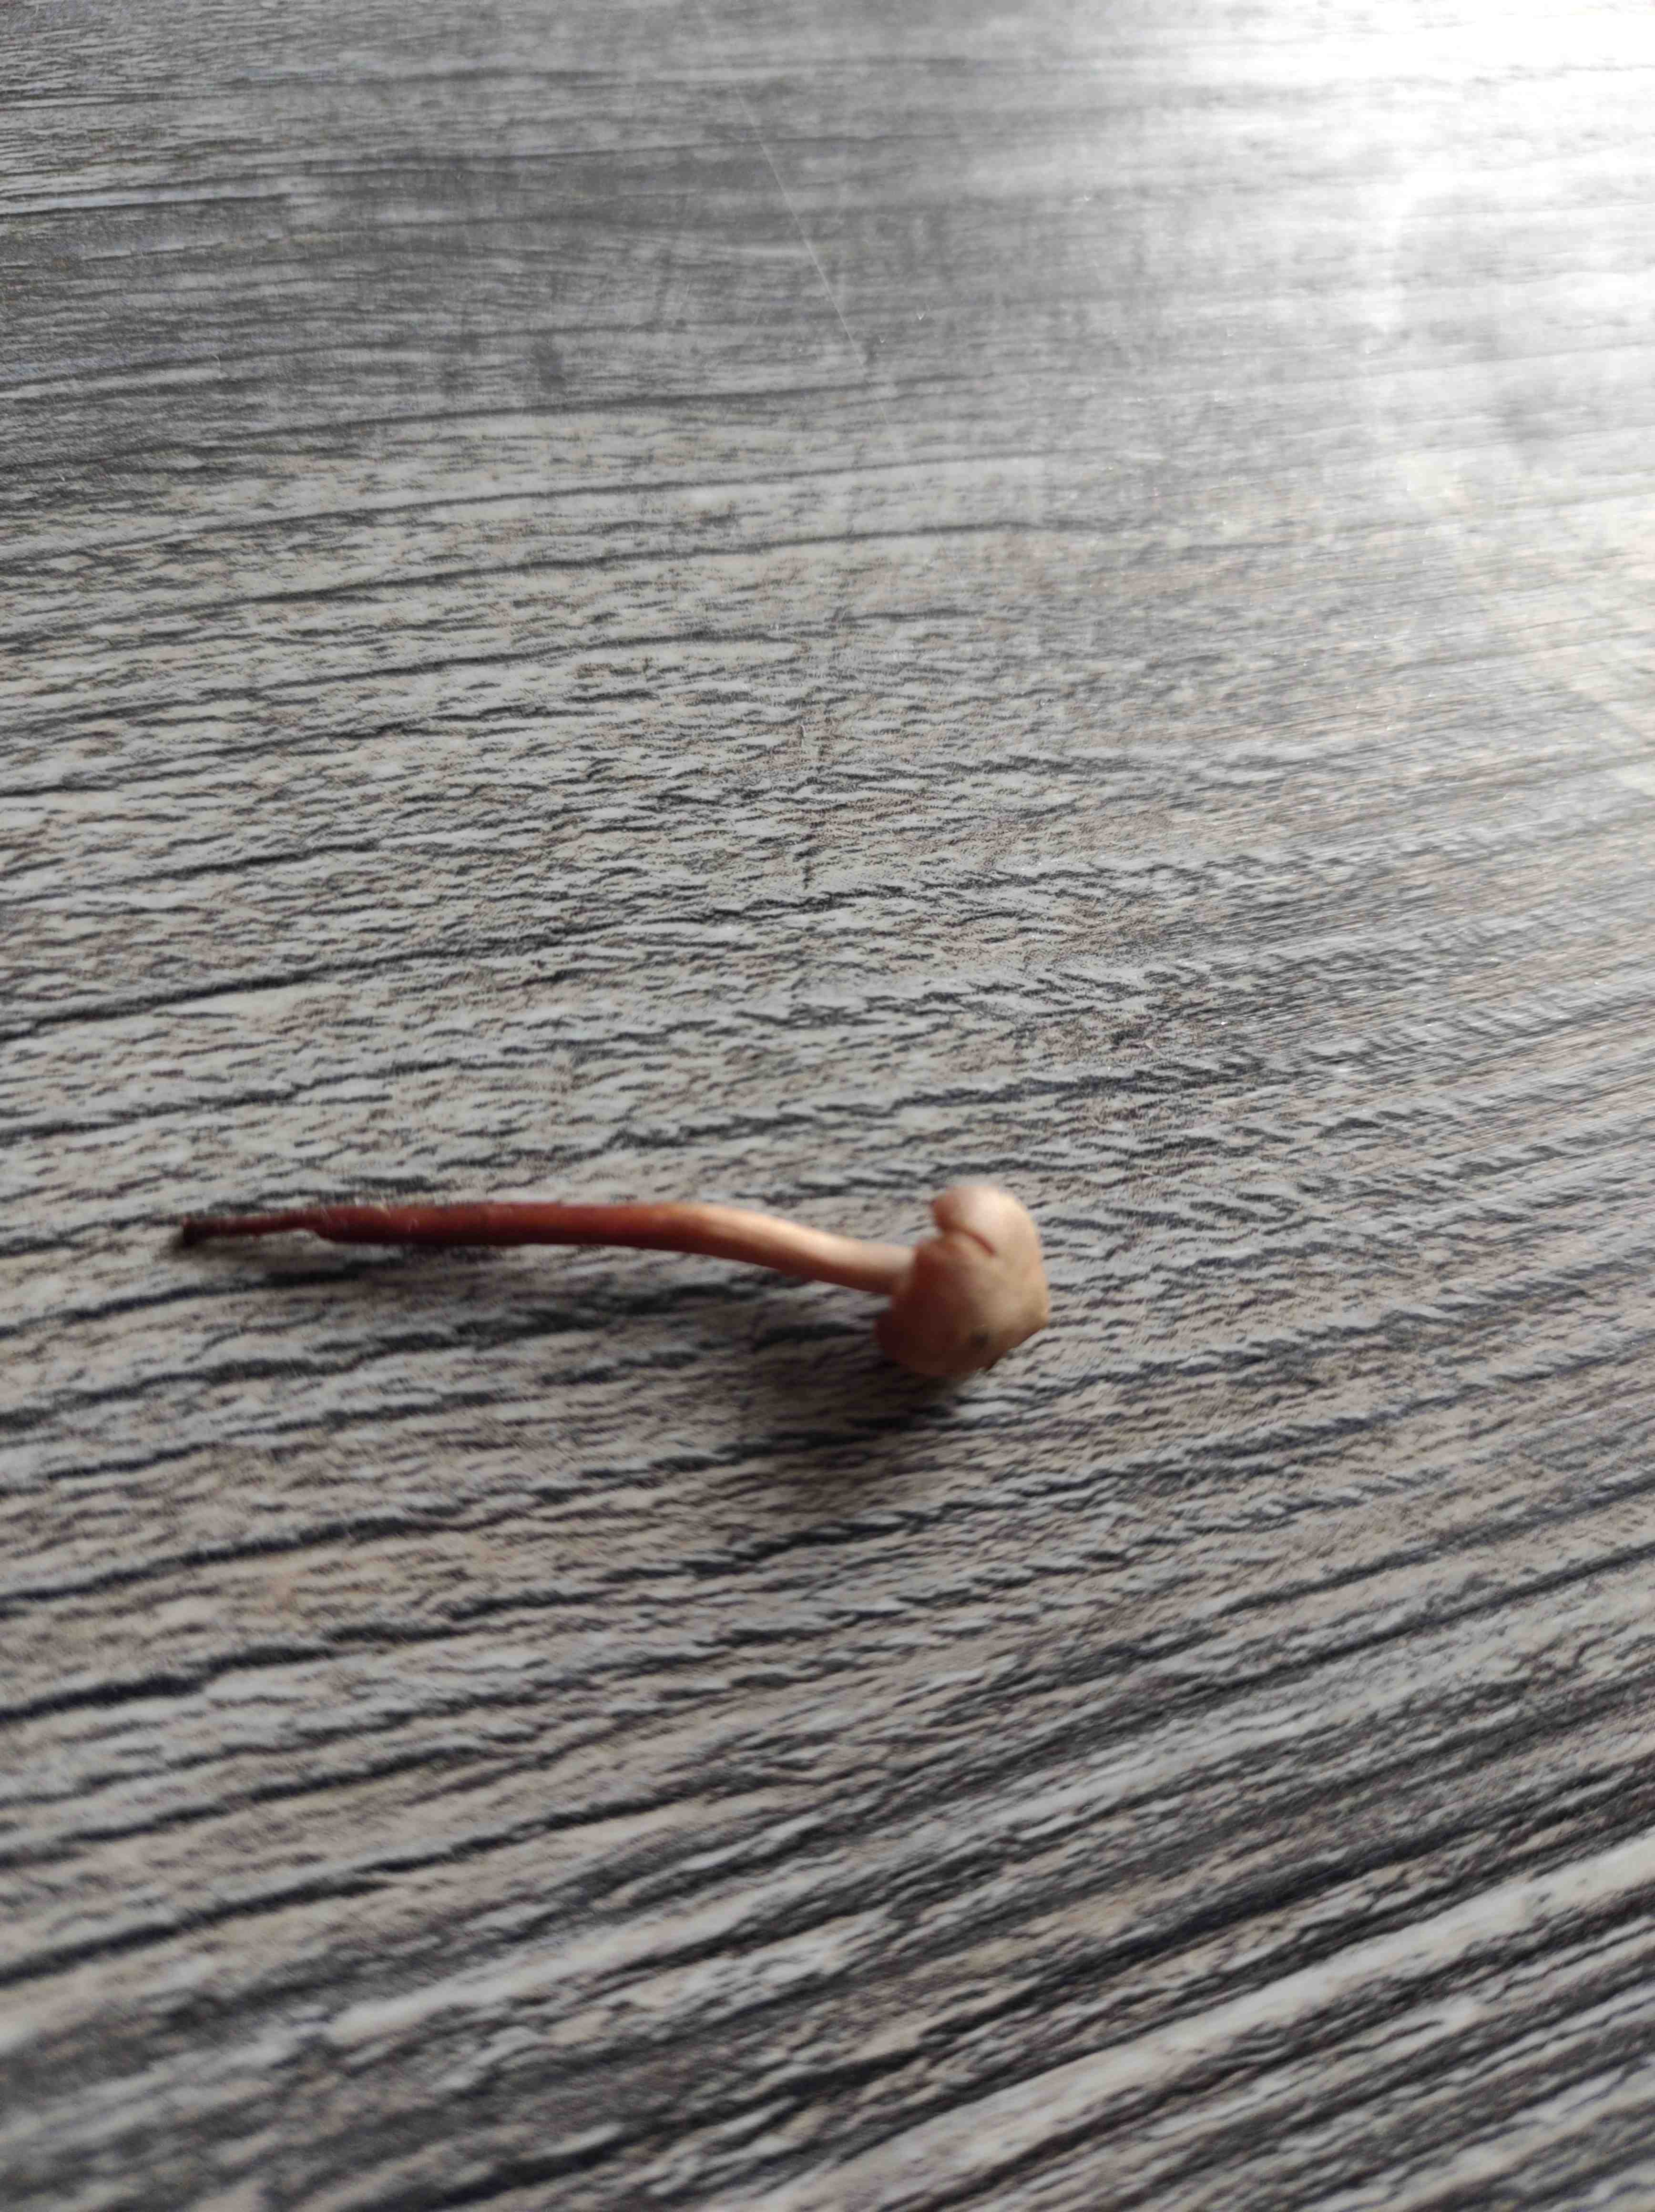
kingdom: Fungi
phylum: Basidiomycota
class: Agaricomycetes
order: Agaricales
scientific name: Agaricales
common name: champignonordenen
